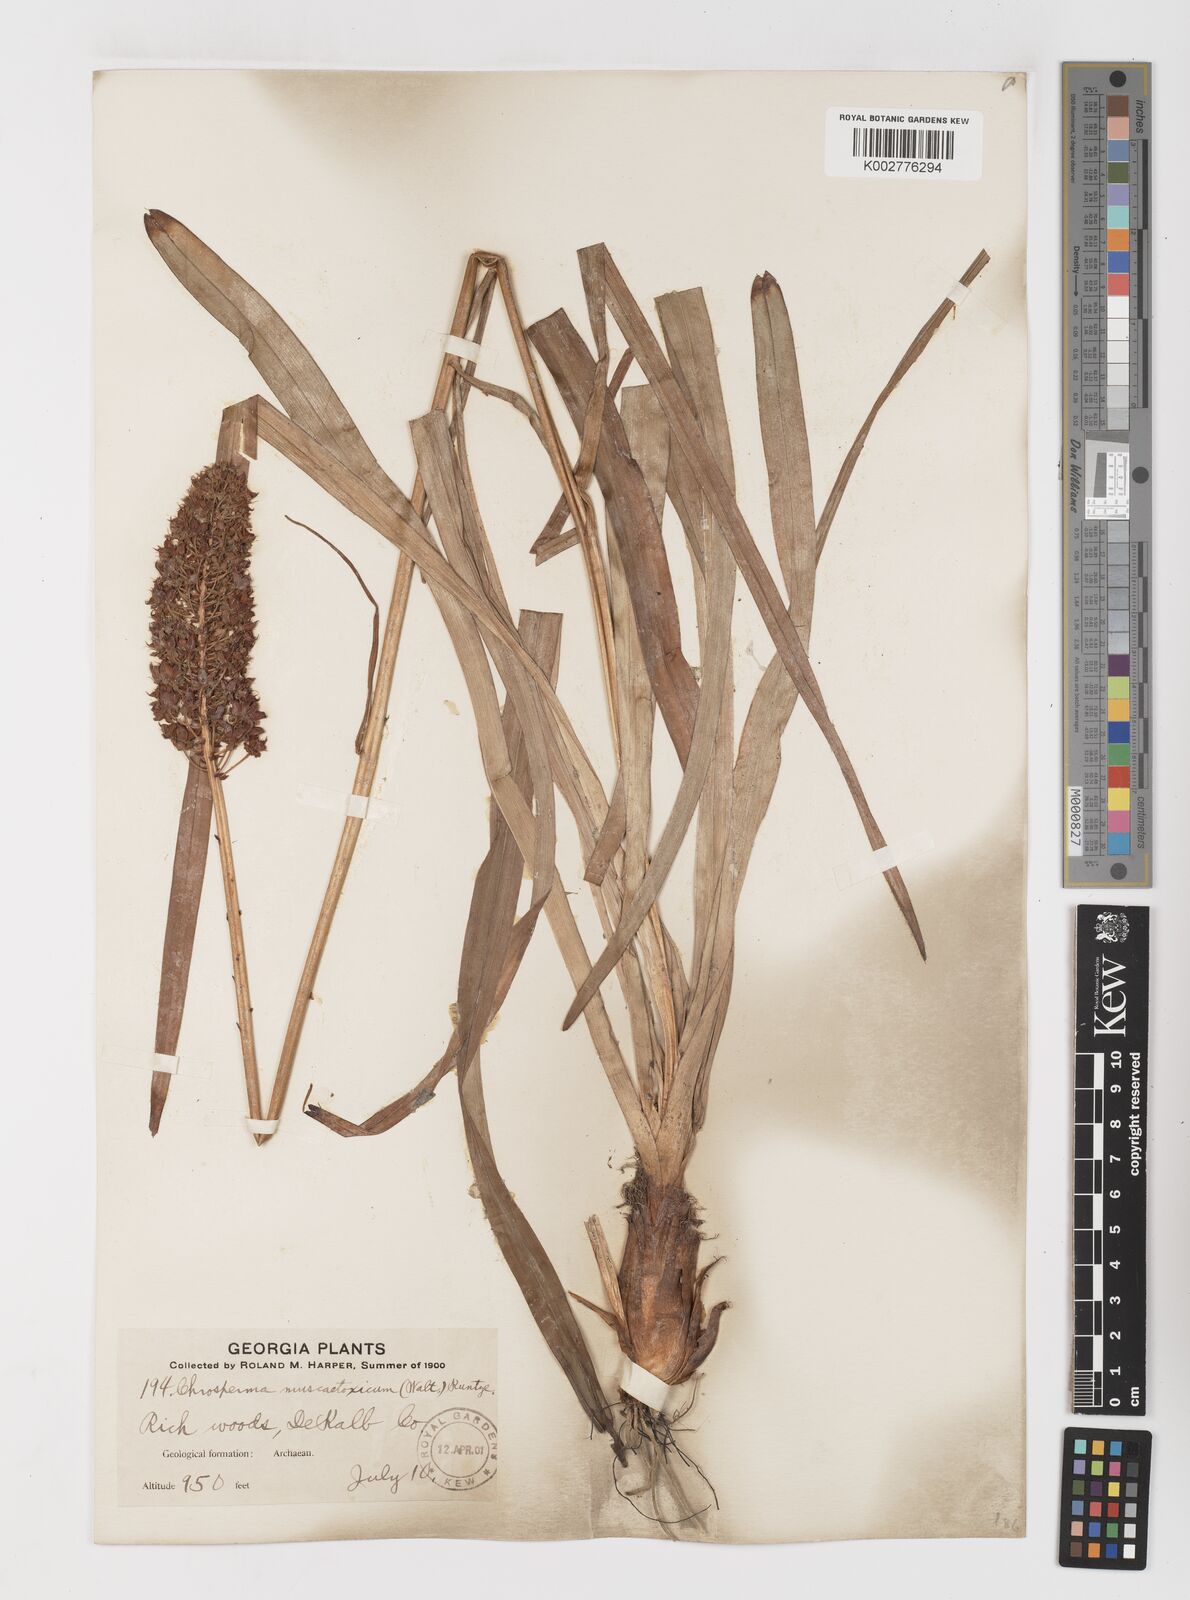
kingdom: Plantae
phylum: Tracheophyta
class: Liliopsida
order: Liliales
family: Melanthiaceae
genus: Amianthium
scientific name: Amianthium muscitoxicum
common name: Fly-poison
